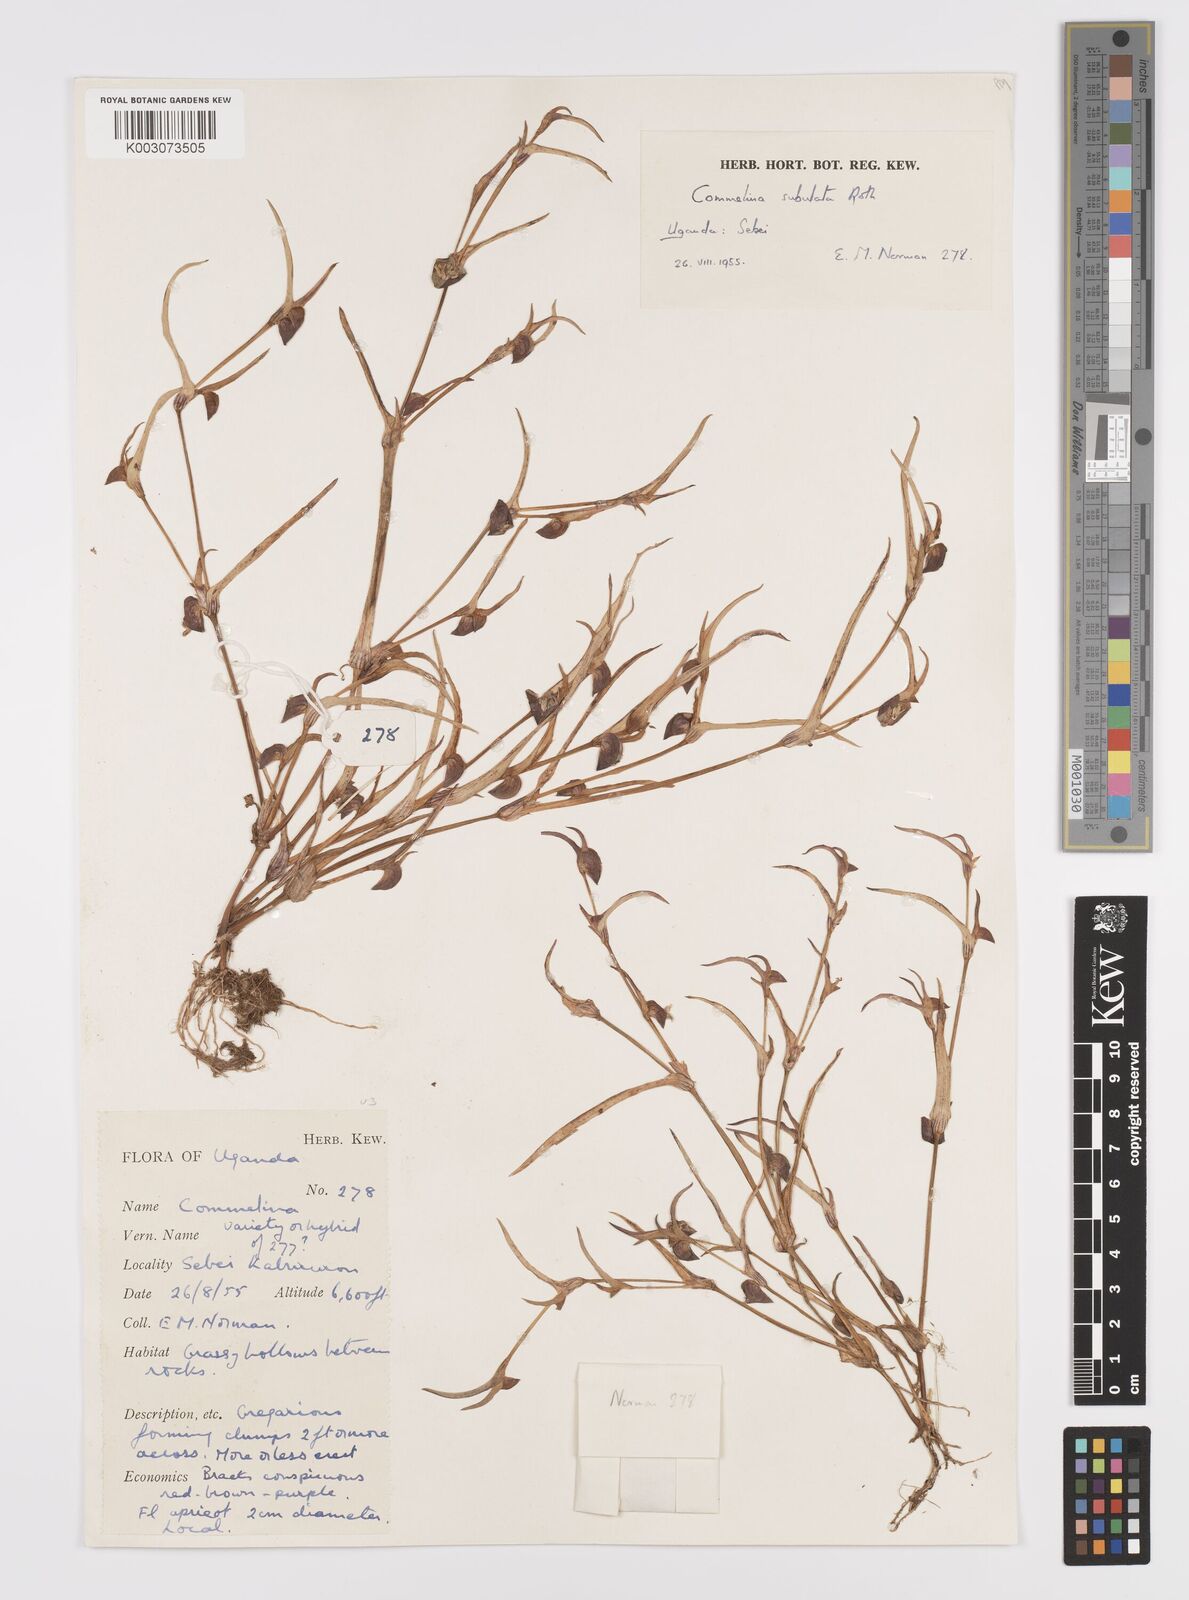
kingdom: Plantae
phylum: Tracheophyta
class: Liliopsida
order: Commelinales
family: Commelinaceae
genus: Commelina
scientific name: Commelina subulata
